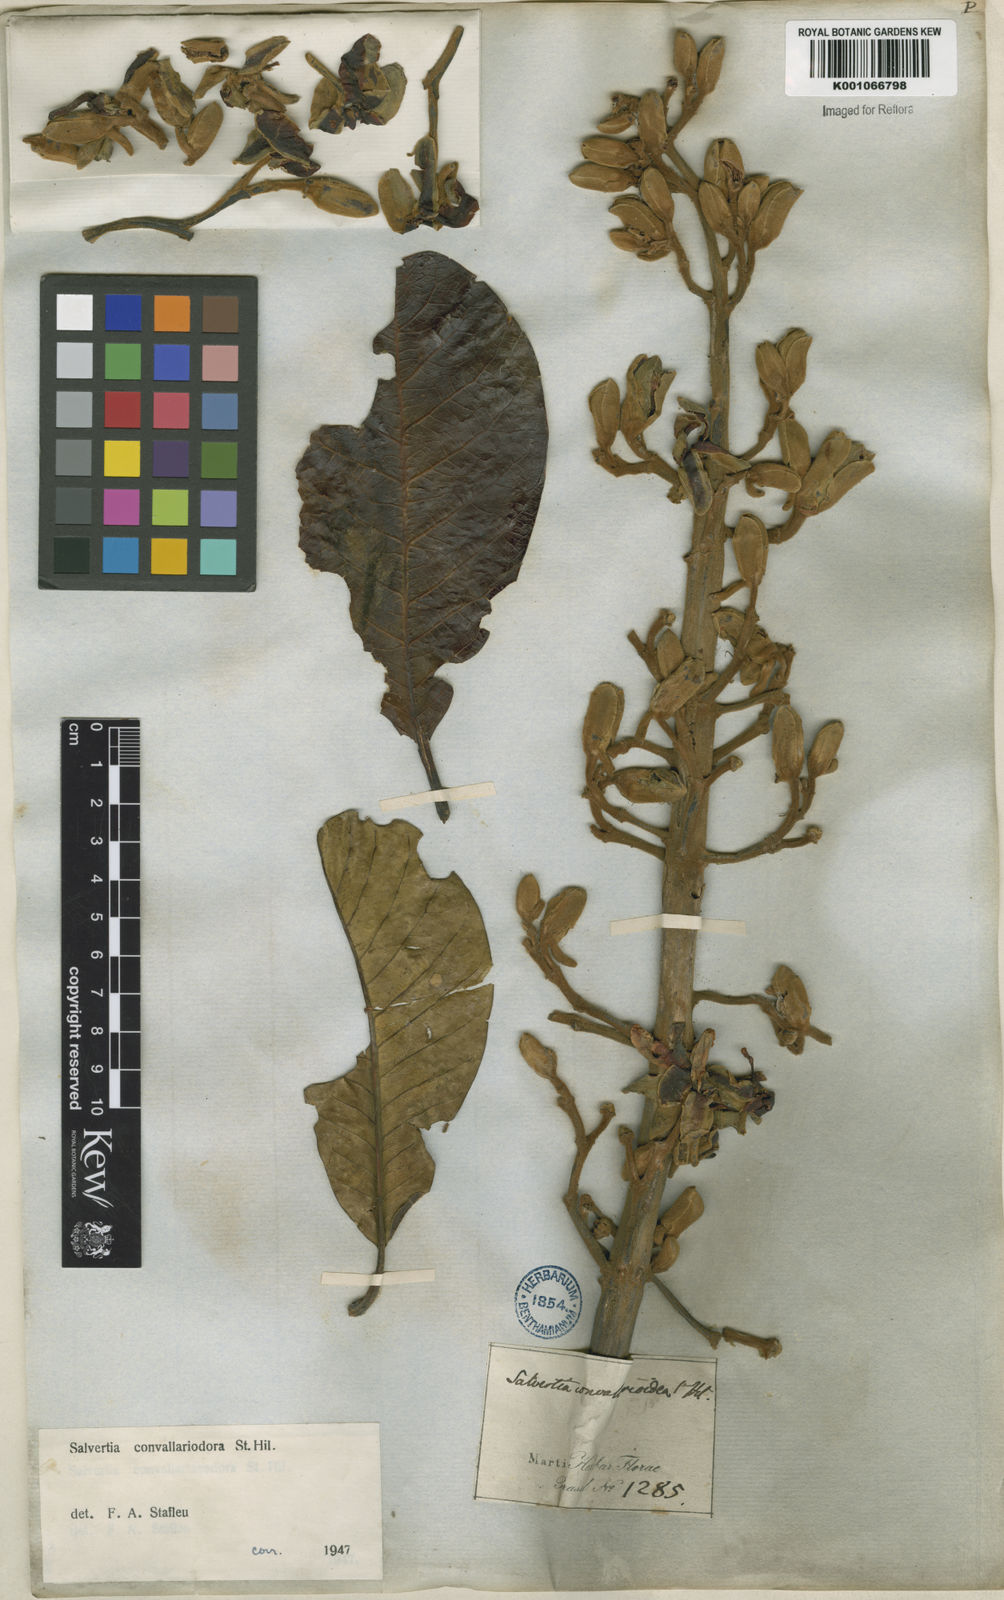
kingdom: Plantae
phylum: Tracheophyta
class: Magnoliopsida
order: Myrtales
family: Vochysiaceae
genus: Salvertia
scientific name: Salvertia convallariodora
